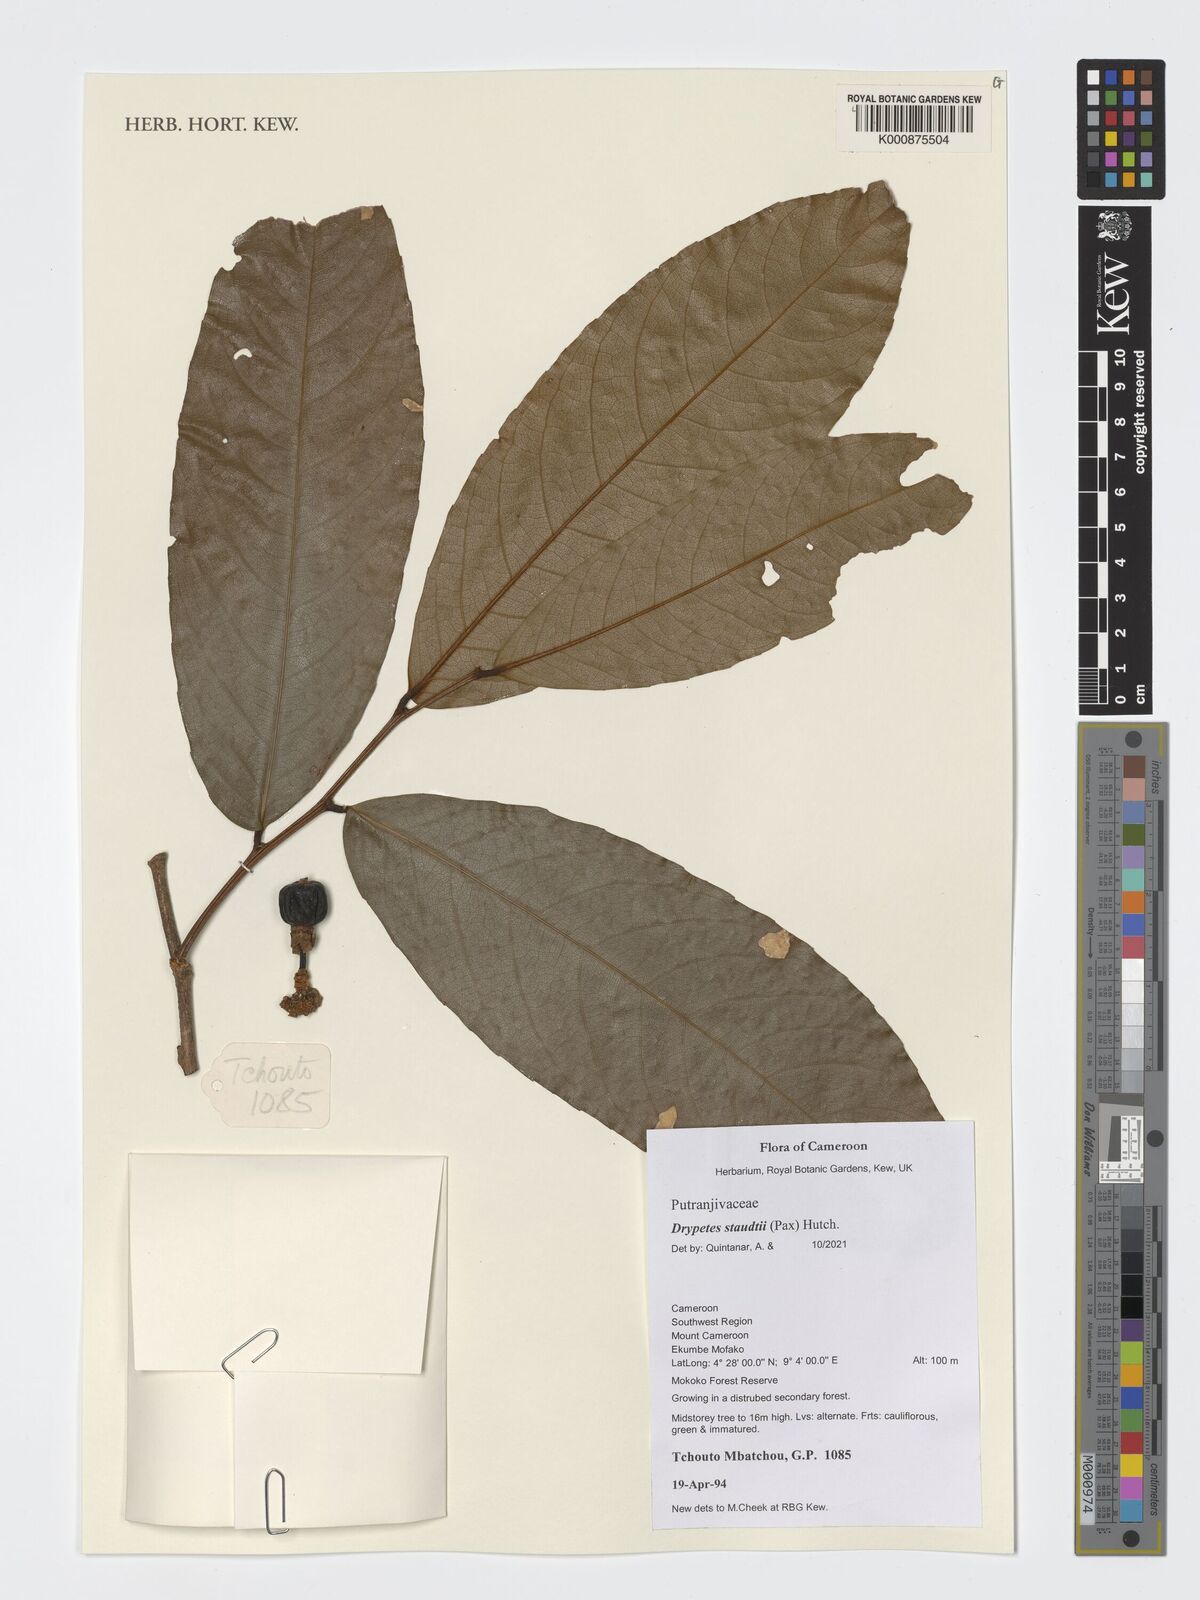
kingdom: Plantae
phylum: Tracheophyta
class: Magnoliopsida
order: Malpighiales
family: Putranjivaceae
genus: Drypetes
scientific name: Drypetes staudtii
